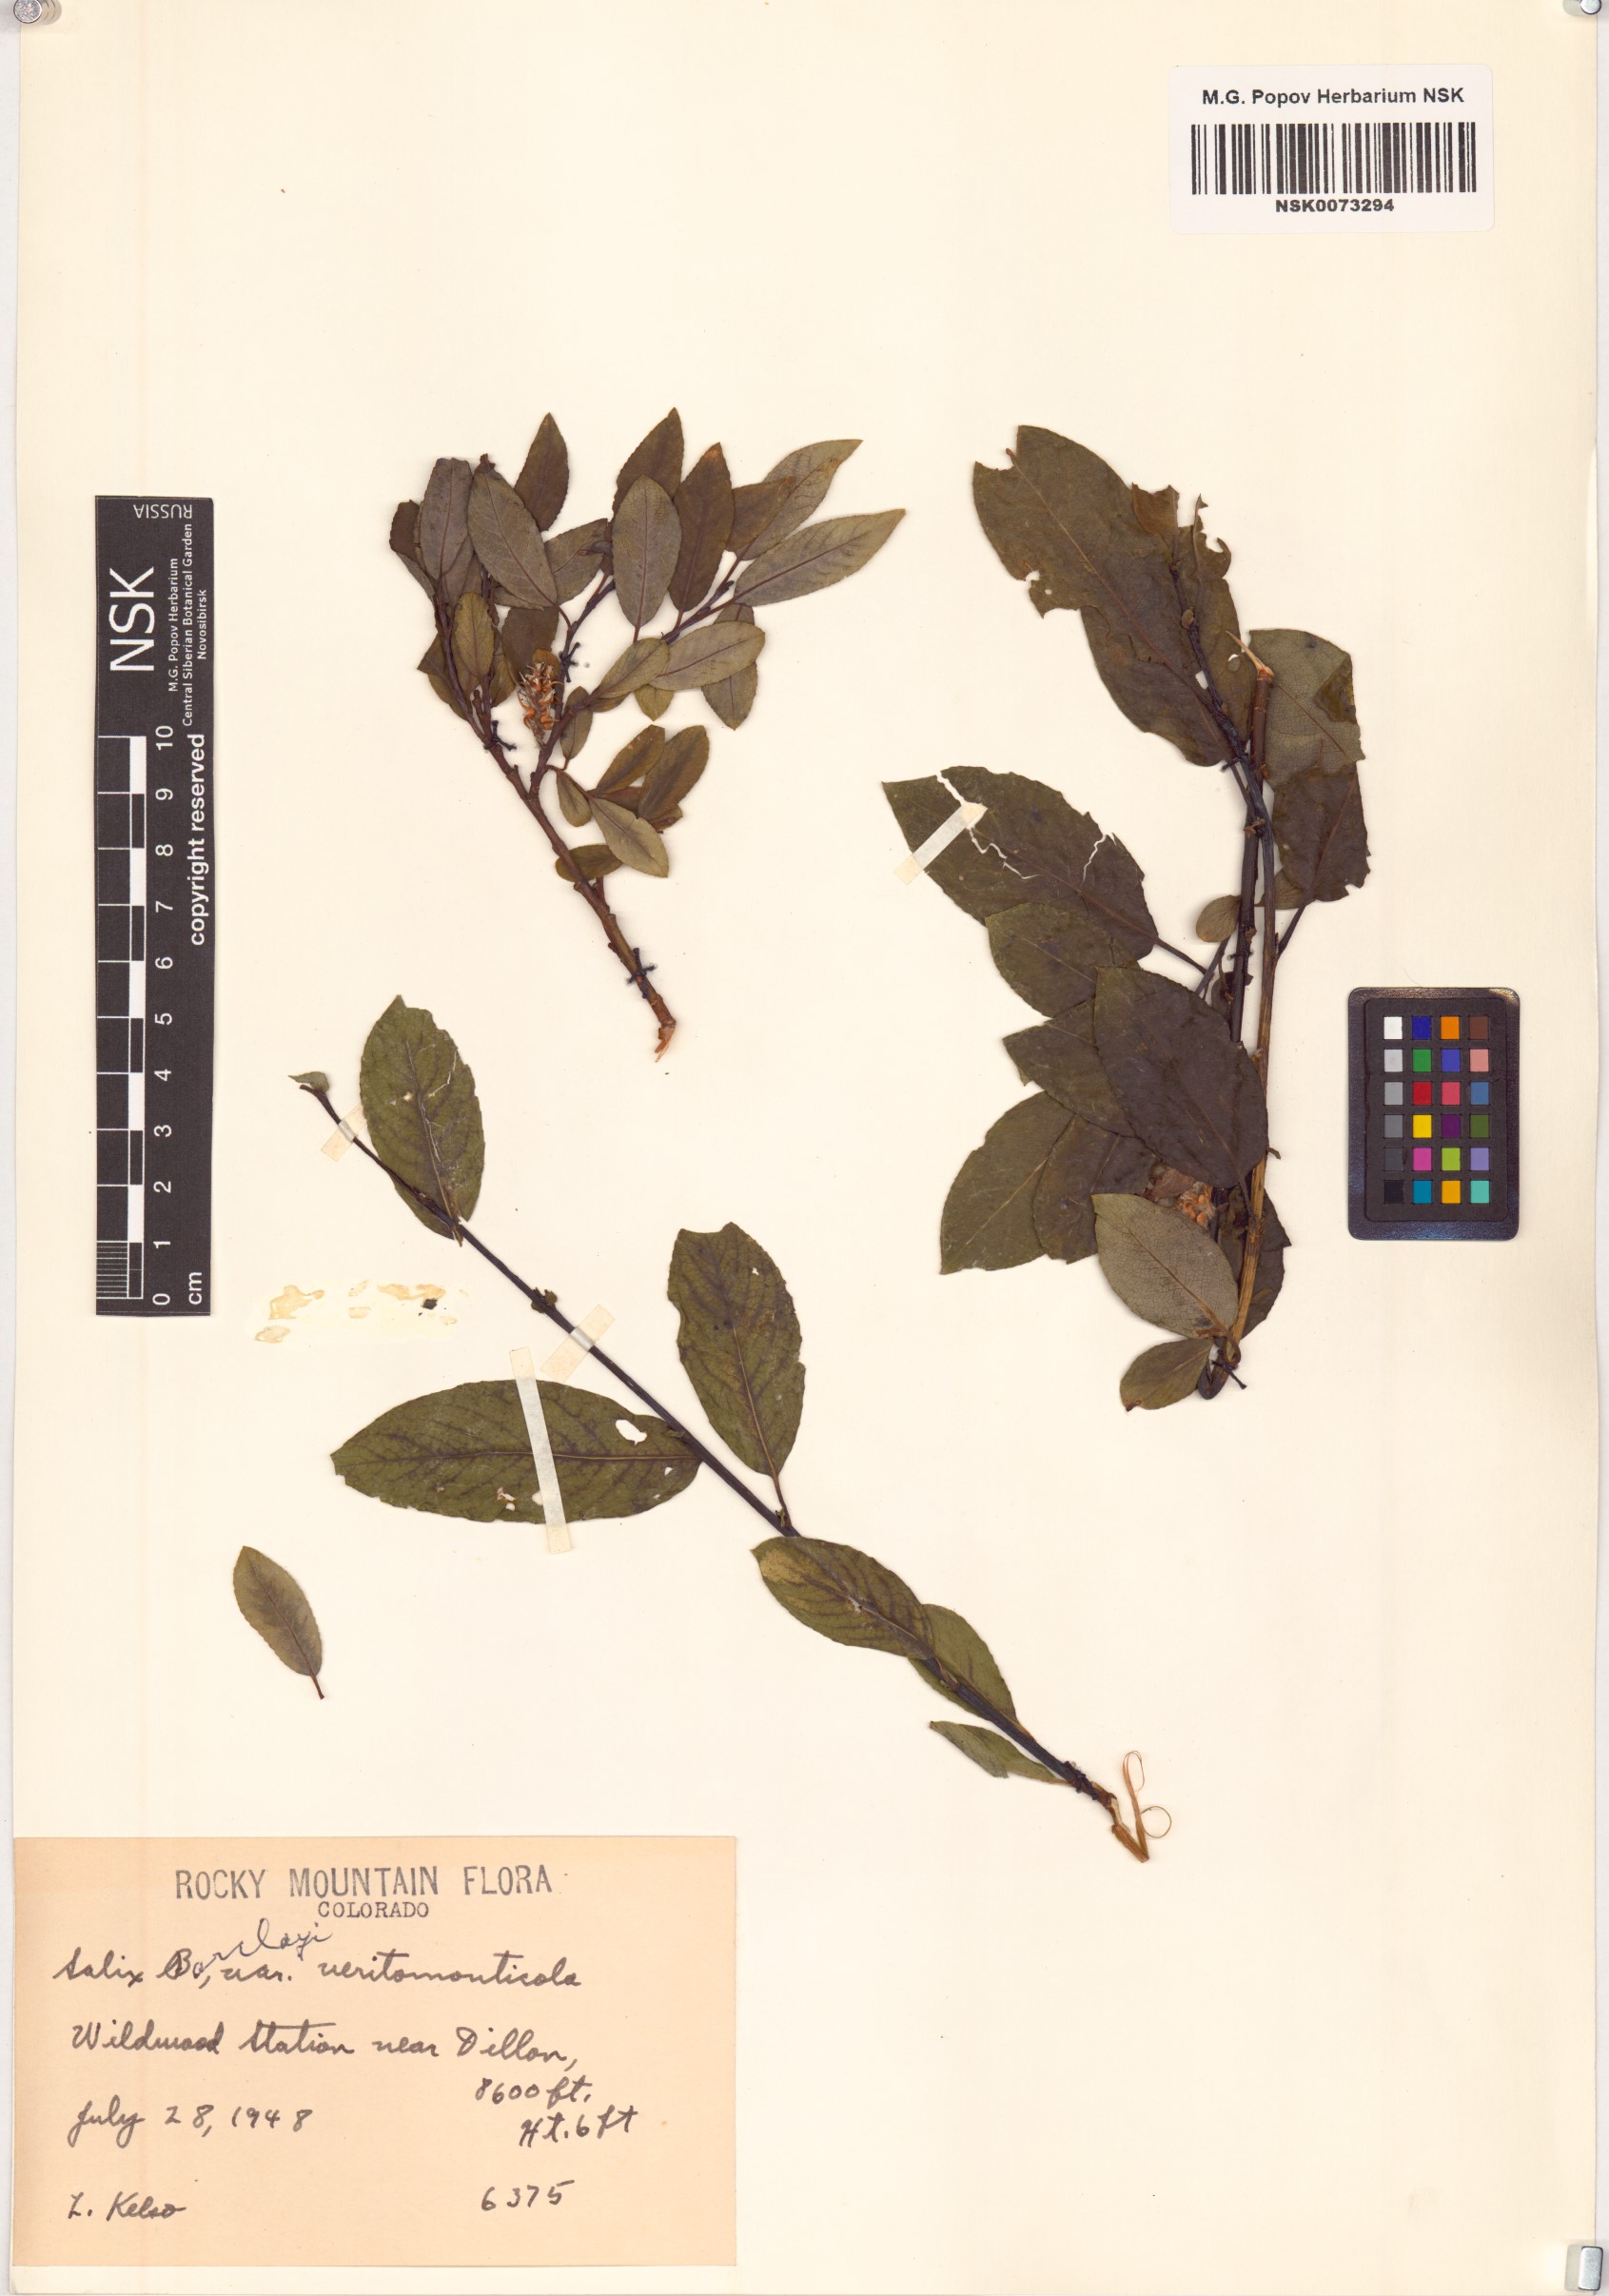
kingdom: Plantae
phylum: Tracheophyta
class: Magnoliopsida
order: Malpighiales
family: Salicaceae
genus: Salix
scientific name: Salix monticola
